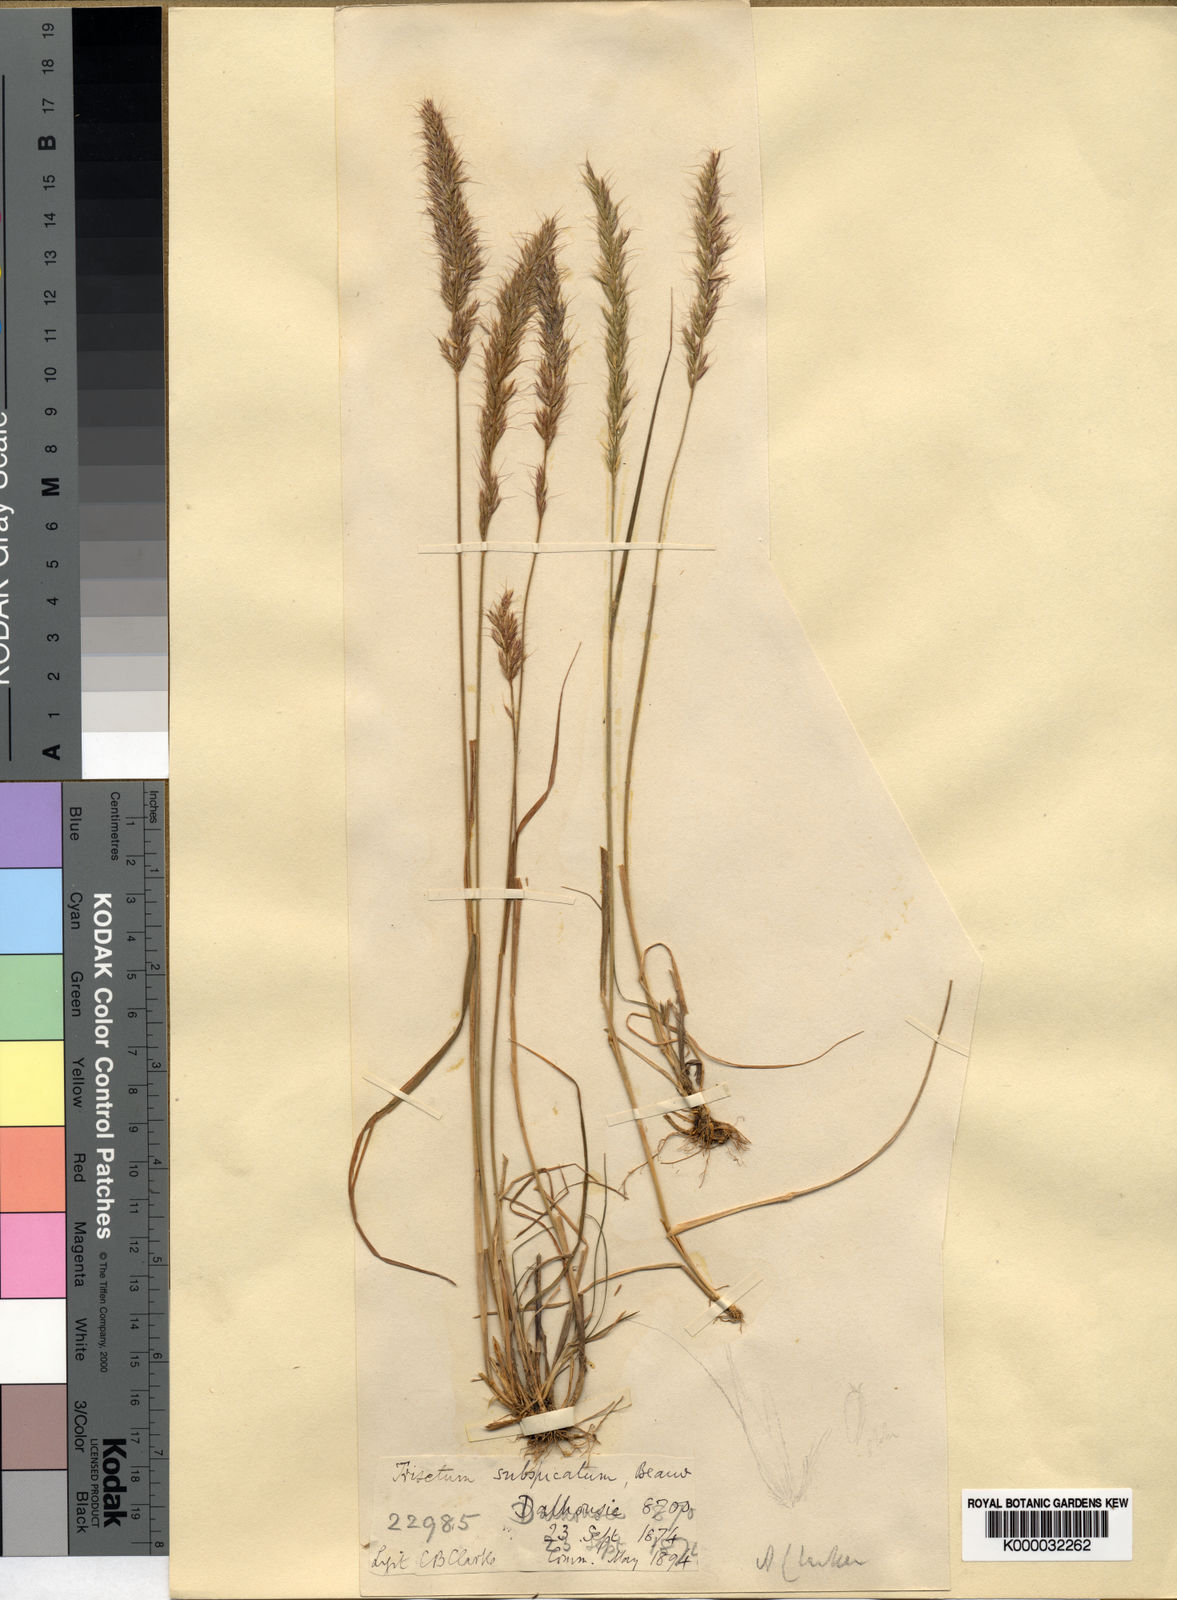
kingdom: Plantae
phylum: Tracheophyta
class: Liliopsida
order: Poales
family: Poaceae
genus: Trisetum
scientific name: Trisetum clarkei
